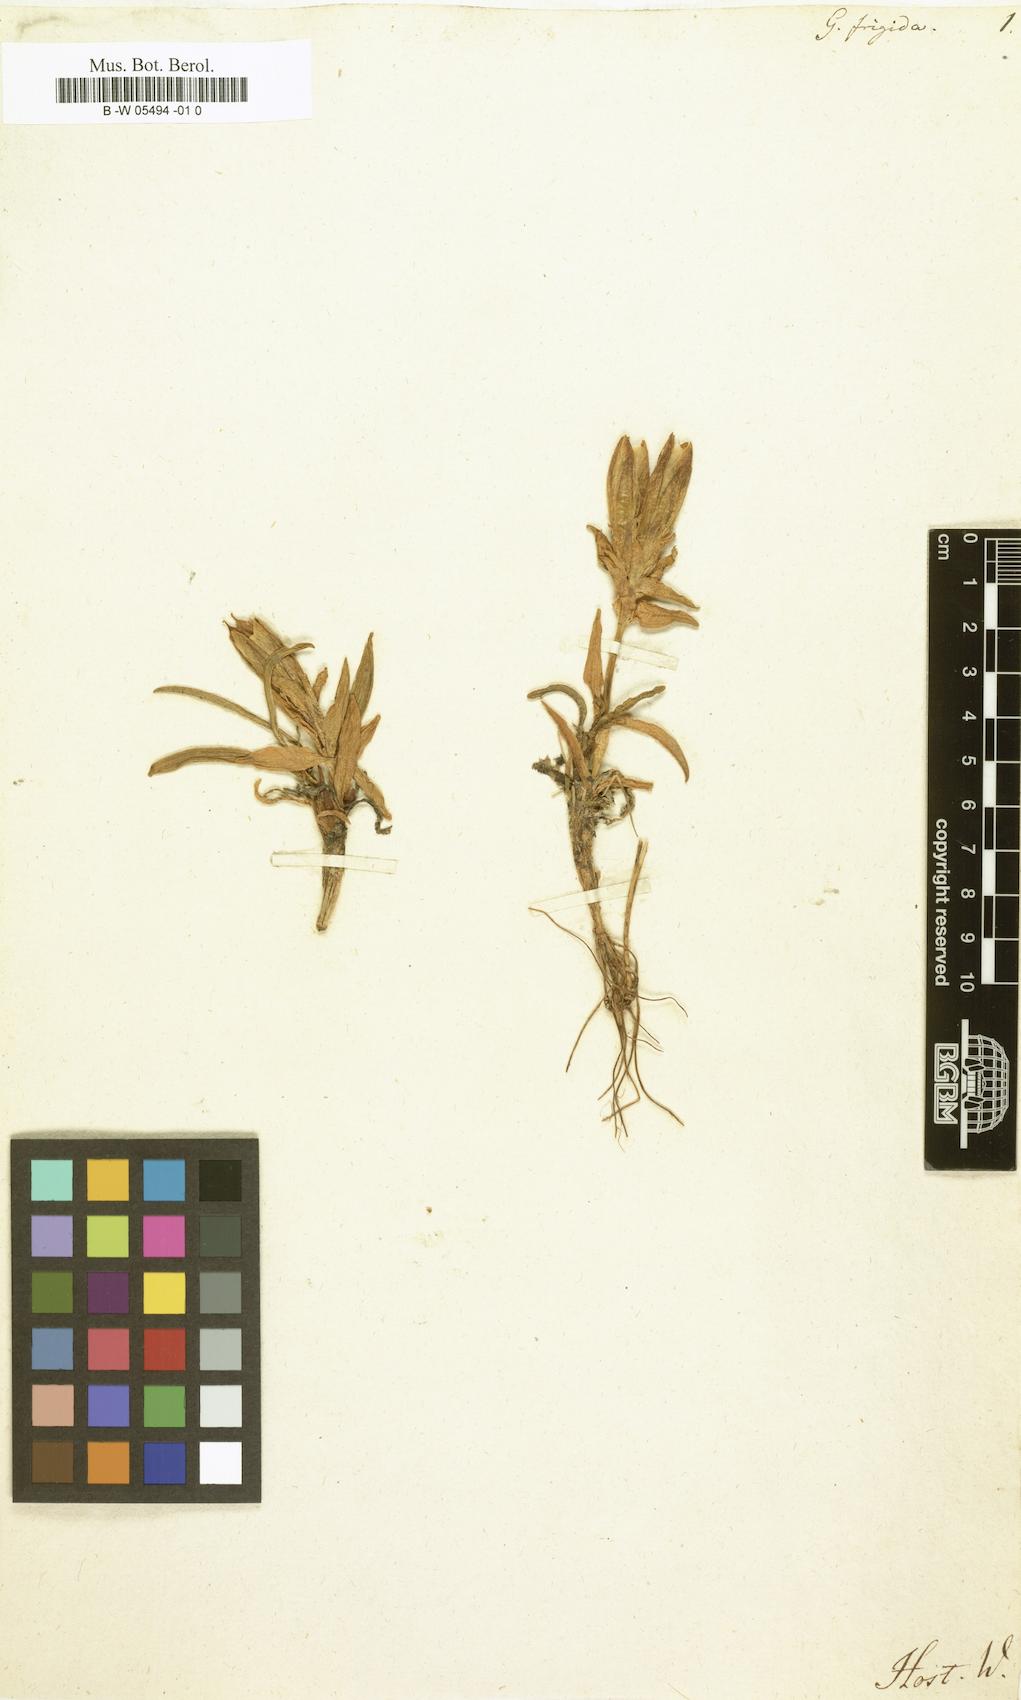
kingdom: Plantae
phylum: Tracheophyta
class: Magnoliopsida
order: Gentianales
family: Gentianaceae
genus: Gentiana
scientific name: Gentiana frigida
